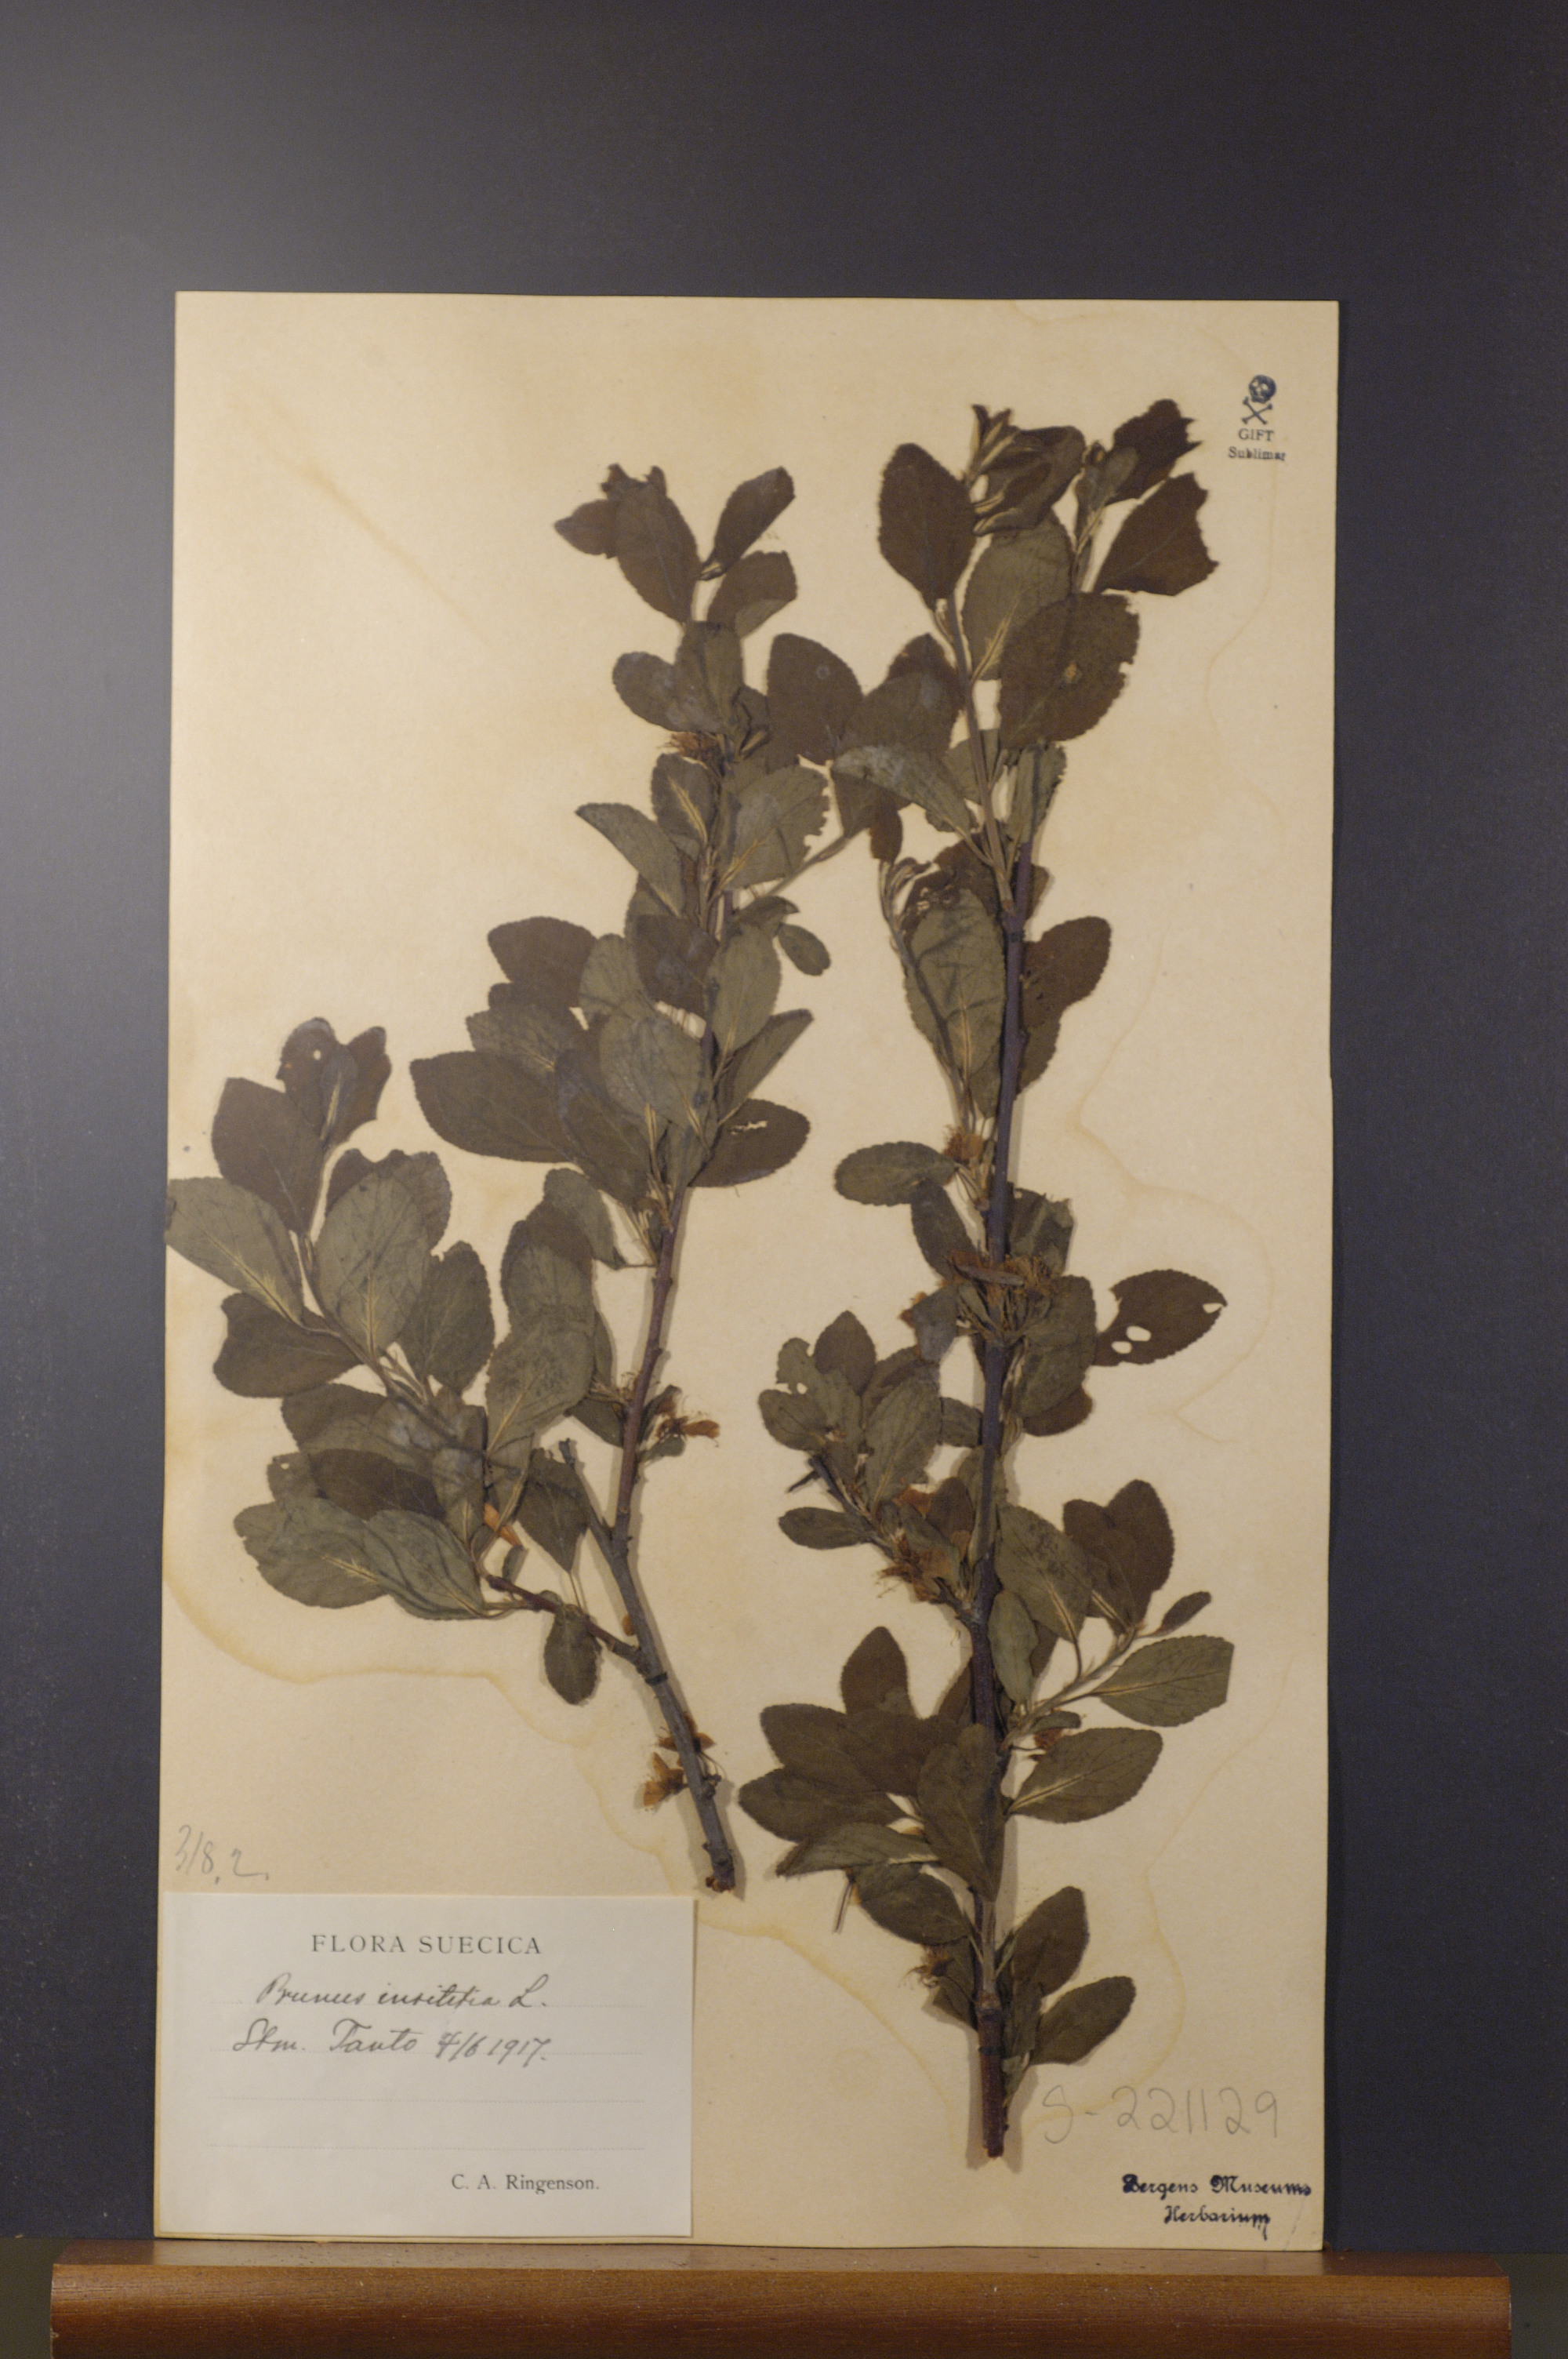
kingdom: Plantae
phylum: Tracheophyta
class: Magnoliopsida
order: Rosales
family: Rosaceae
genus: Prunus
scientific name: Prunus domestica
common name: Wild plum
